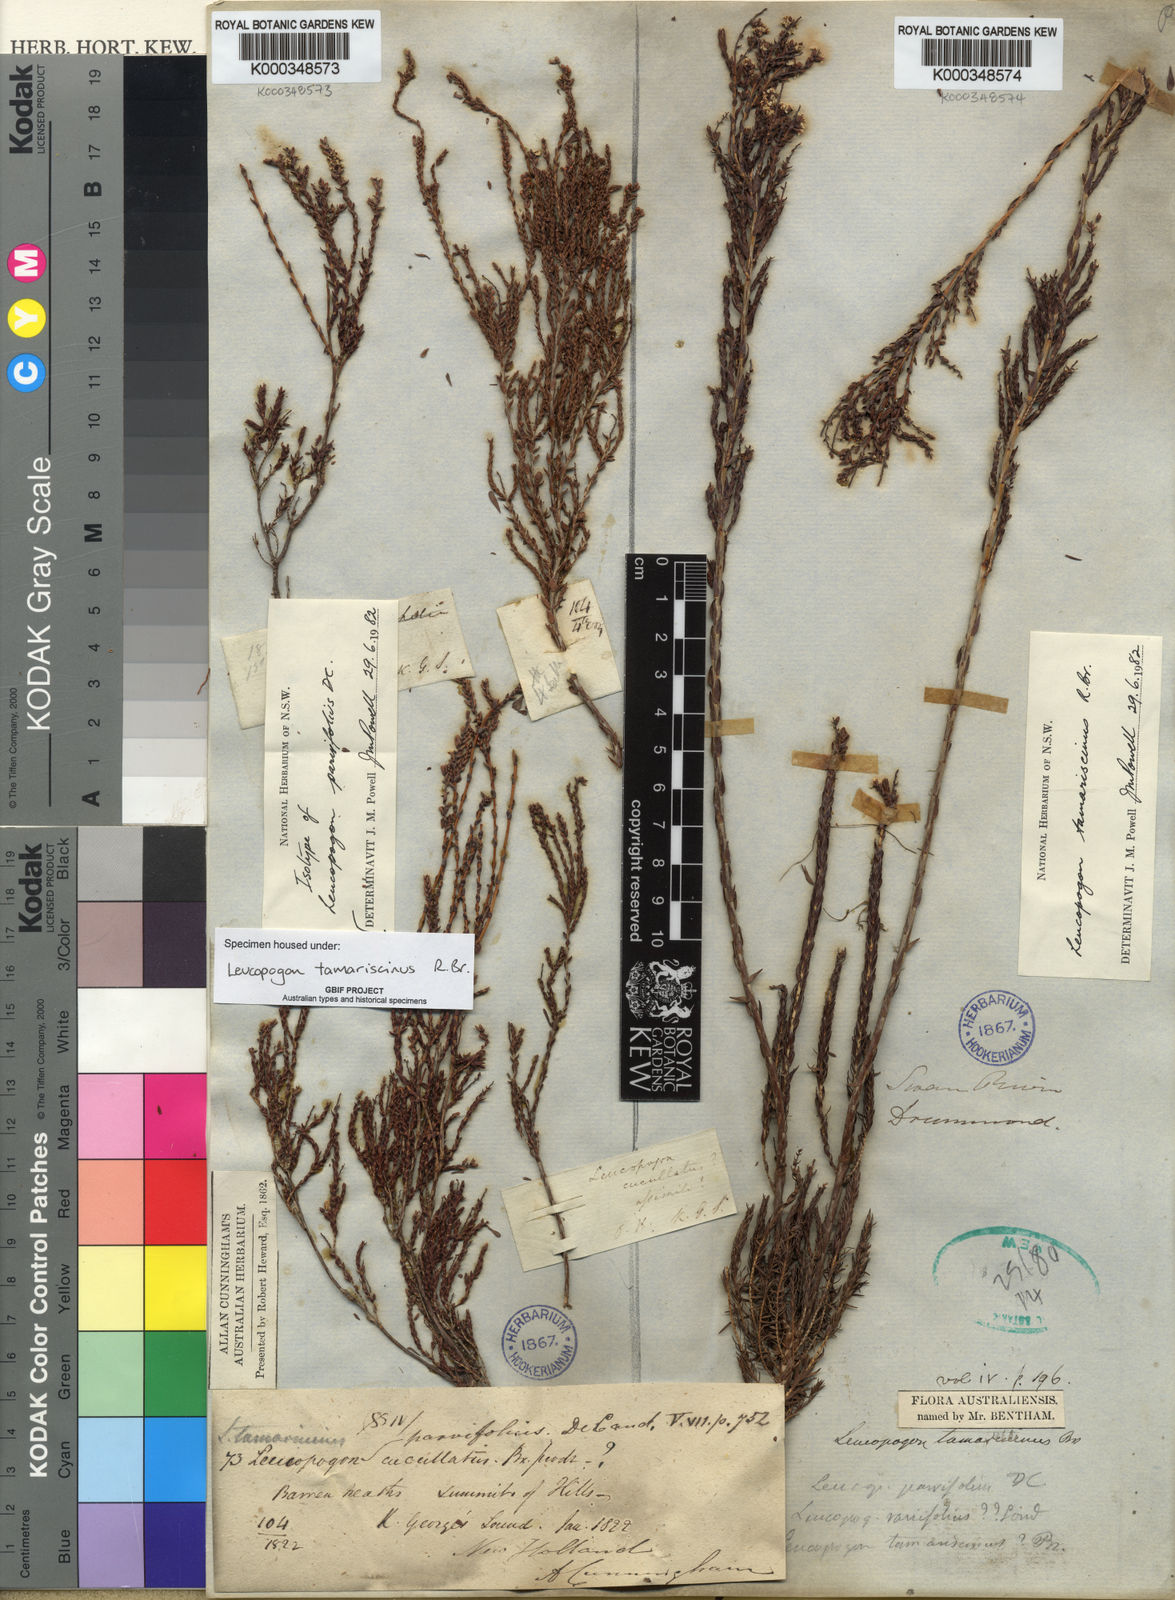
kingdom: Plantae
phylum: Tracheophyta
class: Magnoliopsida
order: Ericales
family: Ericaceae
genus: Leucopogon
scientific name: Leucopogon tamariscinus
